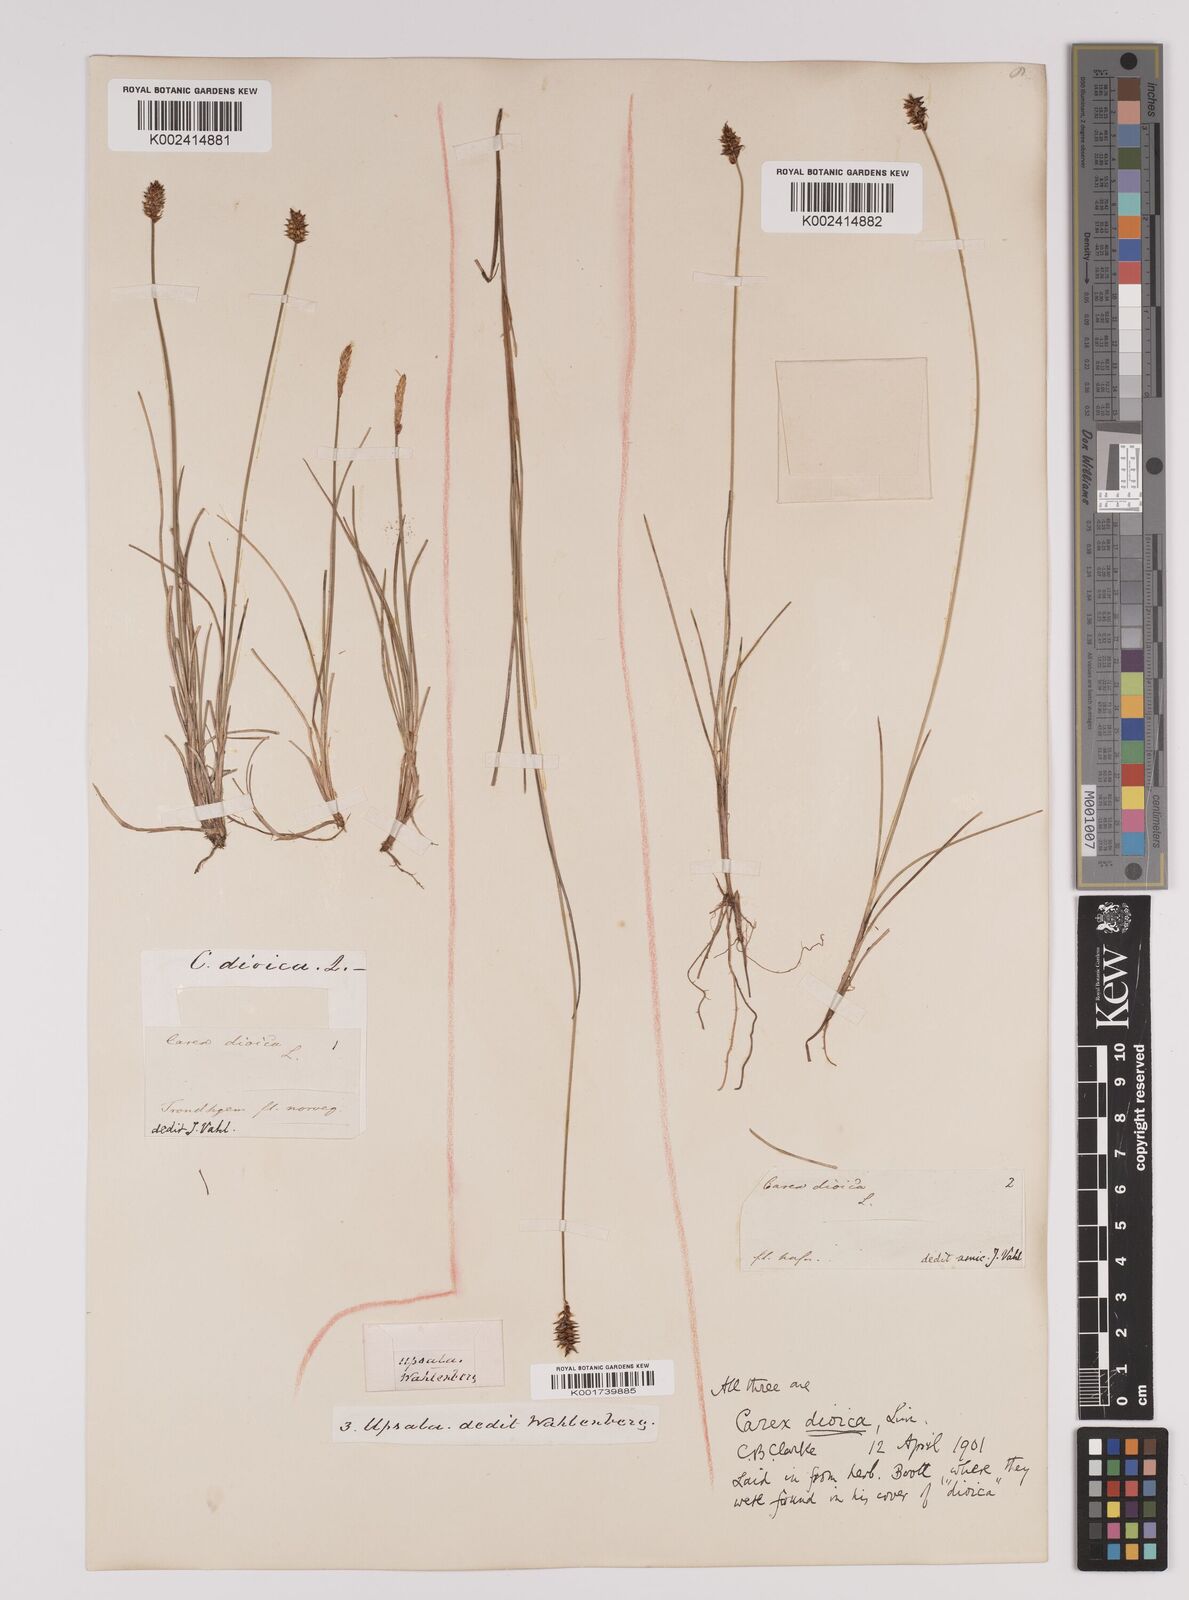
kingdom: Plantae
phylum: Tracheophyta
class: Liliopsida
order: Poales
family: Cyperaceae
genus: Carex
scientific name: Carex dioica
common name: Dioecious sedge
